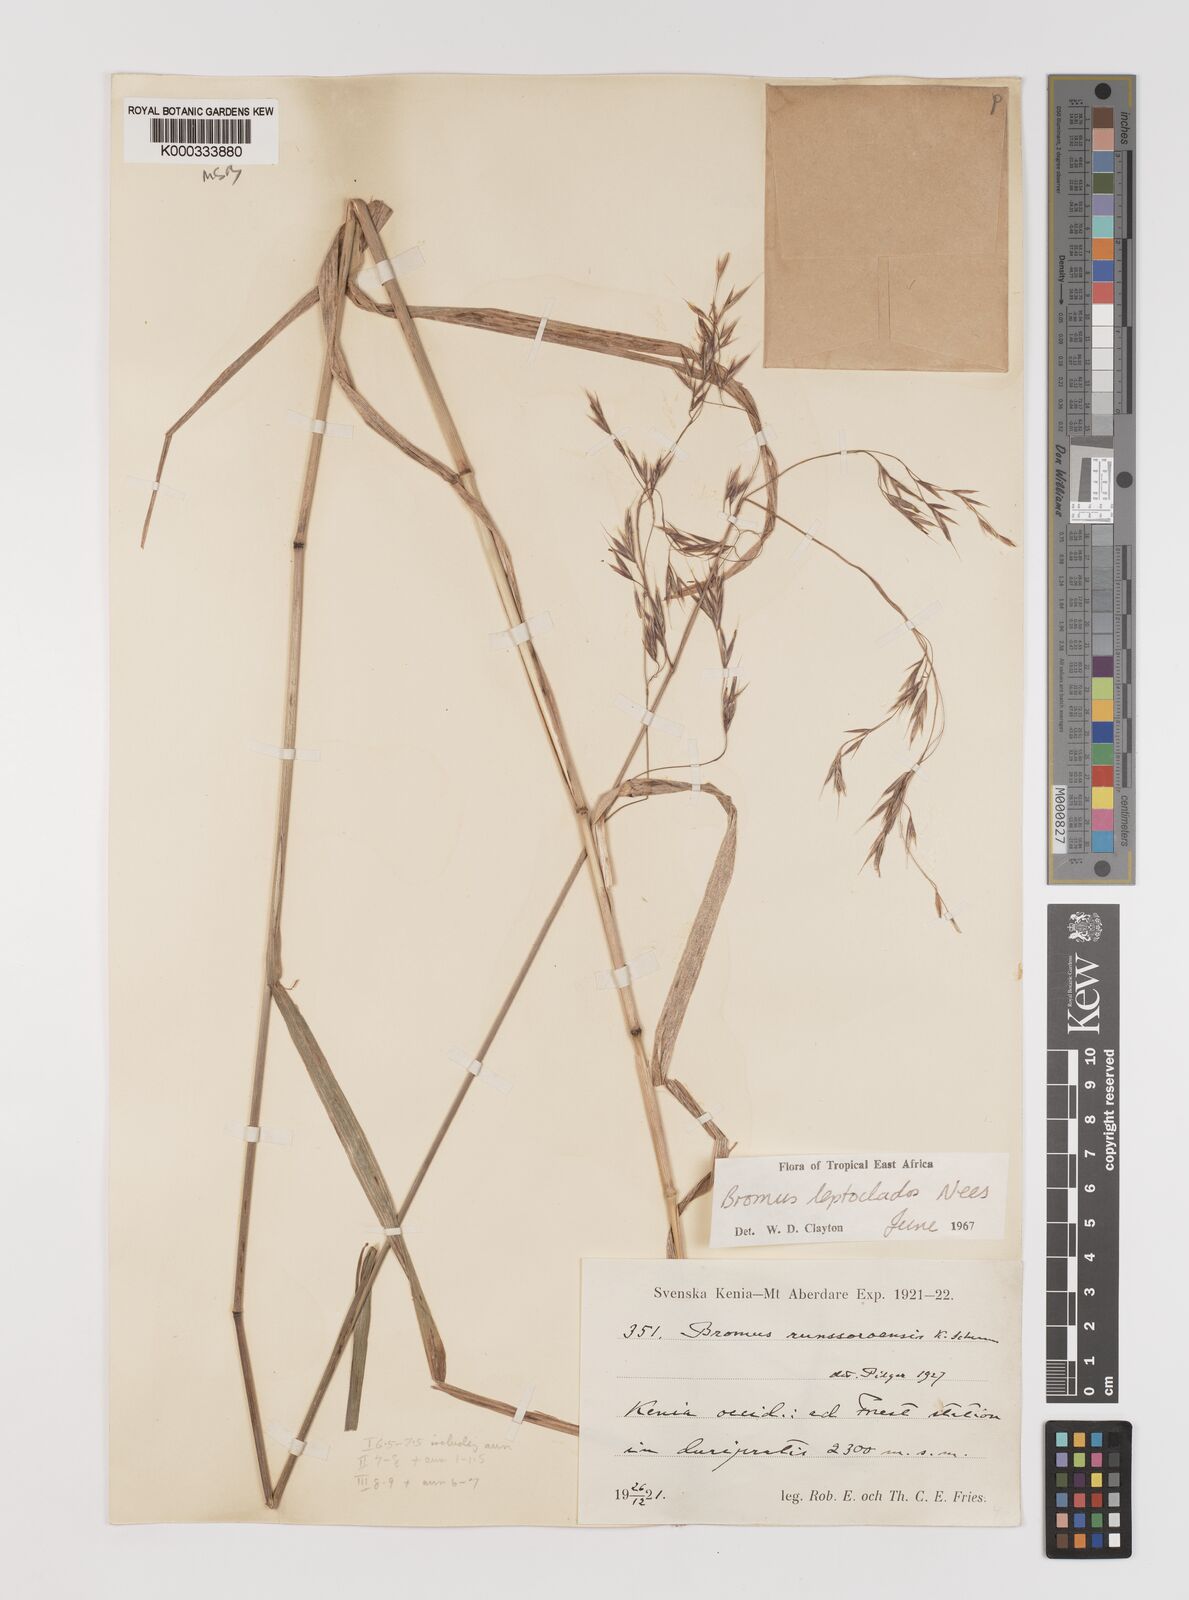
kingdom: Plantae
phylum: Tracheophyta
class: Liliopsida
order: Poales
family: Poaceae
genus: Bromus
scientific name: Bromus leptoclados
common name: Mountain bromegrass
